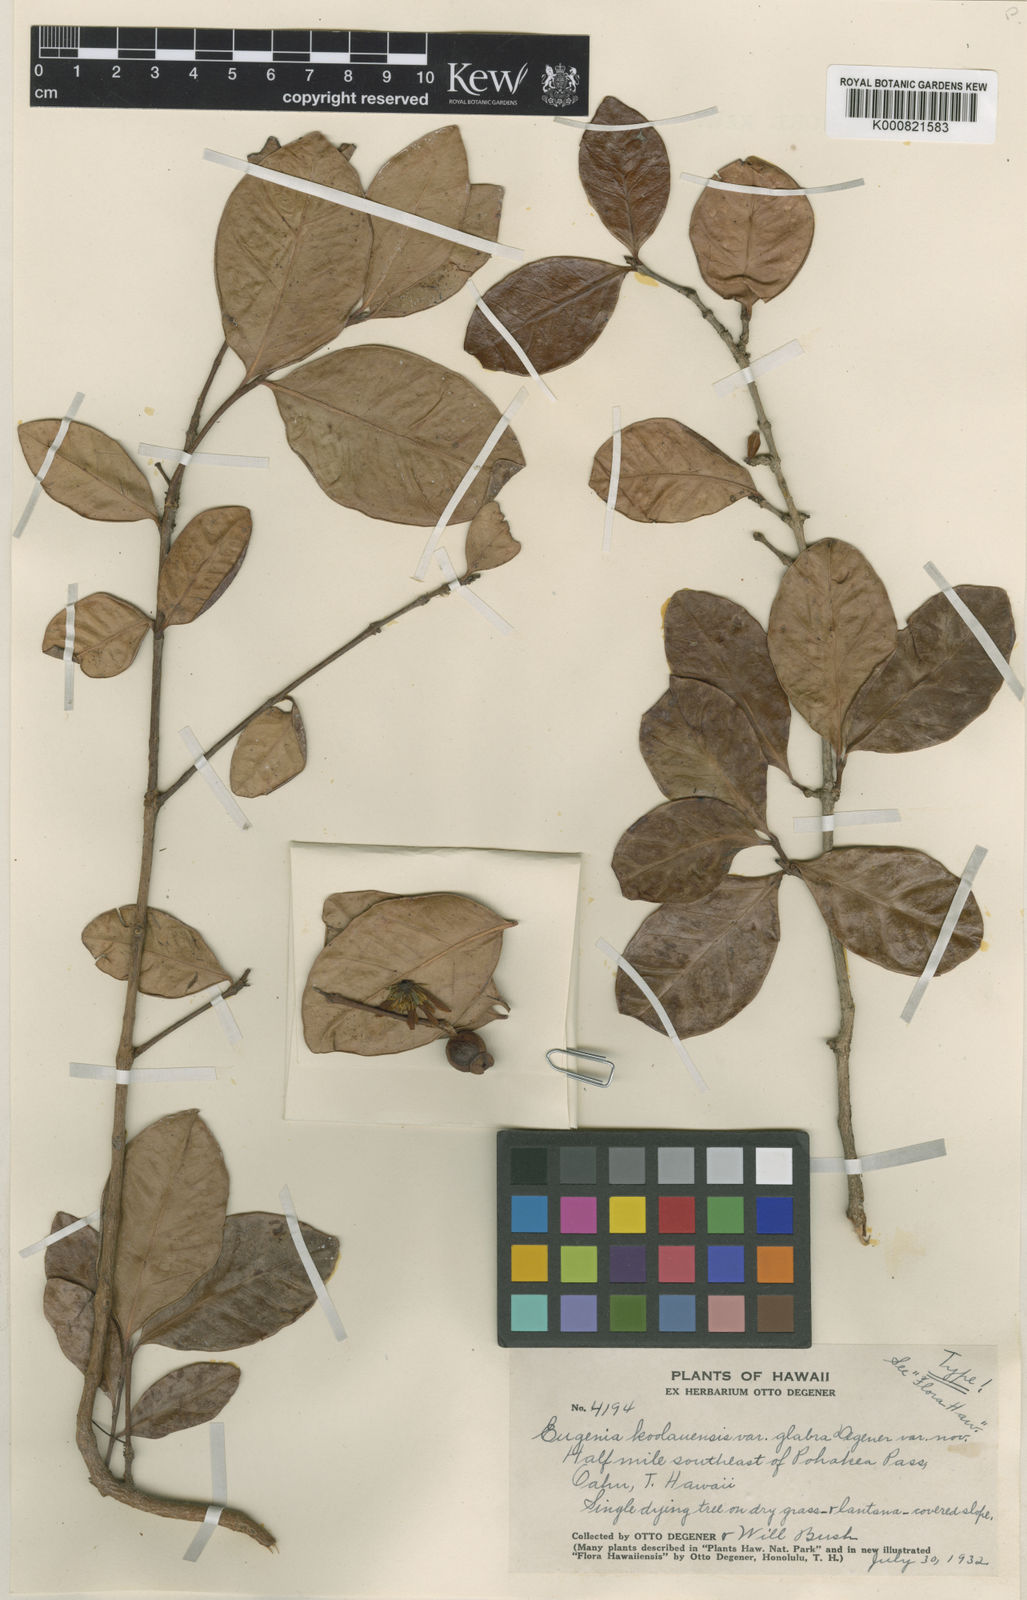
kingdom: Plantae
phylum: Tracheophyta
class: Magnoliopsida
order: Myrtales
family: Myrtaceae
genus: Eugenia
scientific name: Eugenia koolauensis
